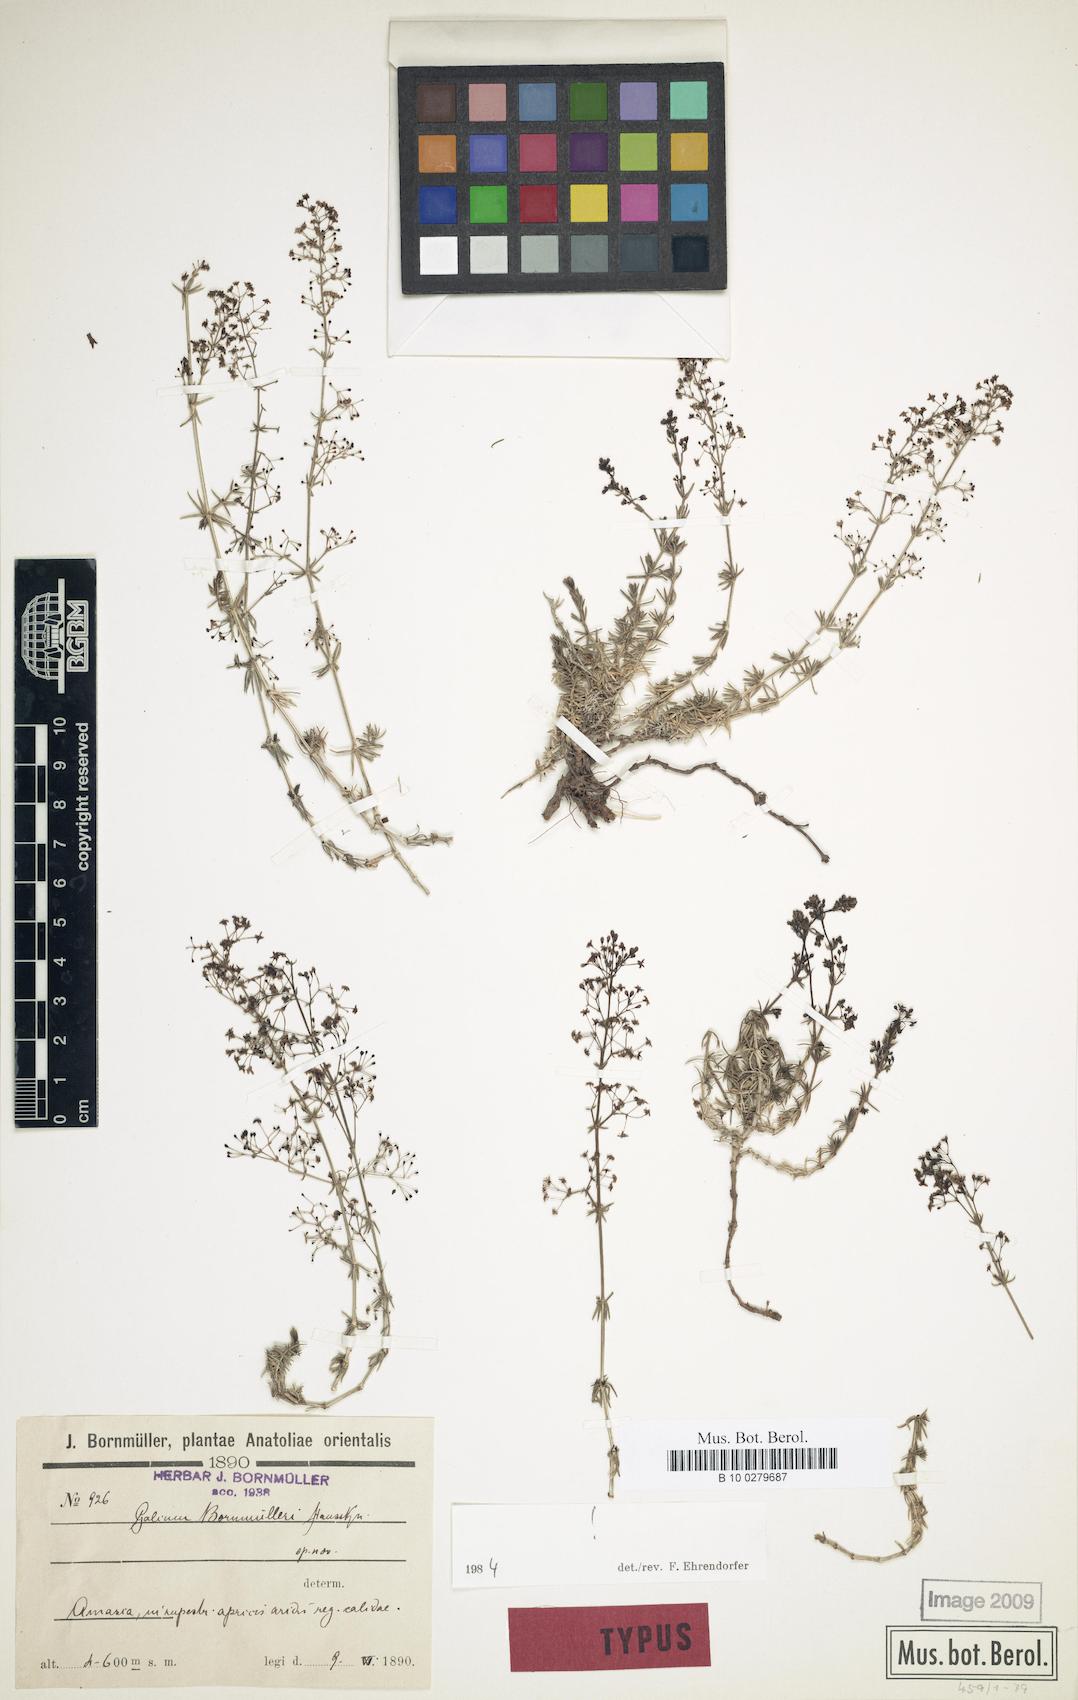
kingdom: Plantae
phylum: Tracheophyta
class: Magnoliopsida
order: Gentianales
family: Rubiaceae
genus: Galium
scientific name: Galium bornmuelleri
